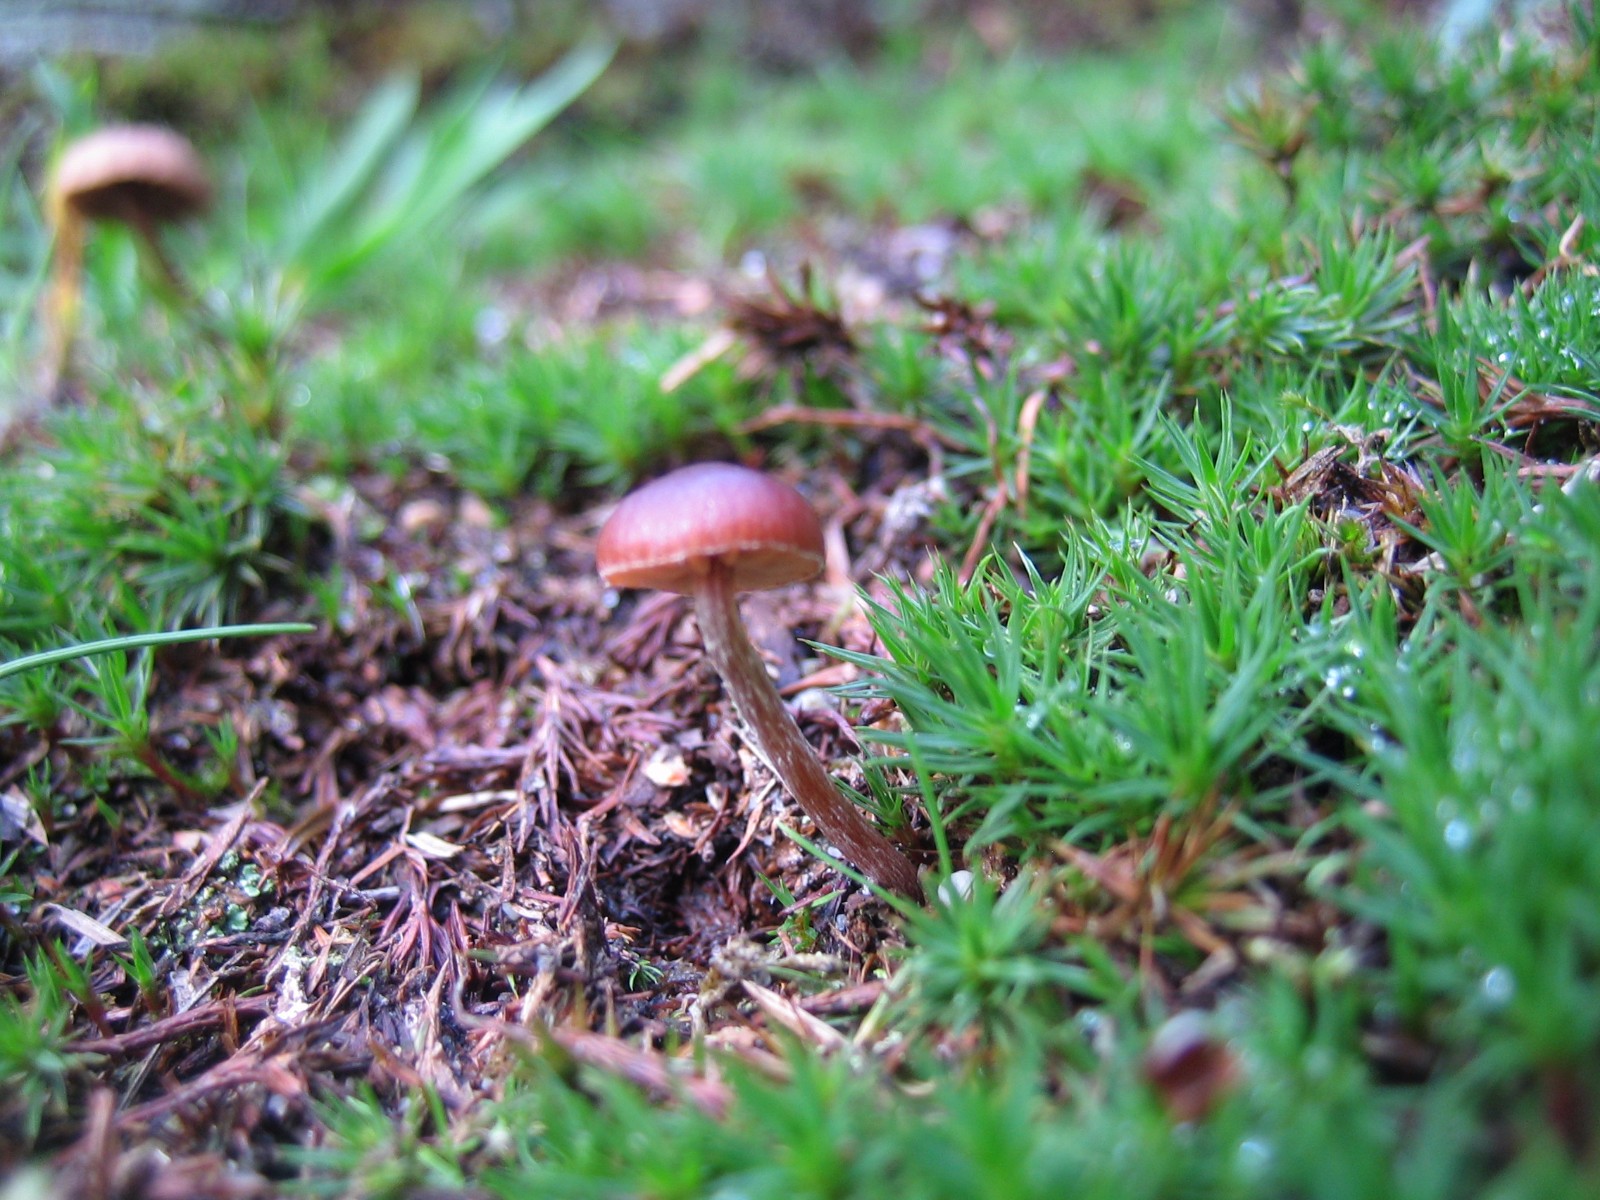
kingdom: Fungi
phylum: Basidiomycota
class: Agaricomycetes
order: Agaricales
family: Strophariaceae
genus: Deconica
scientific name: Deconica montana
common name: rødbrun stråhat
